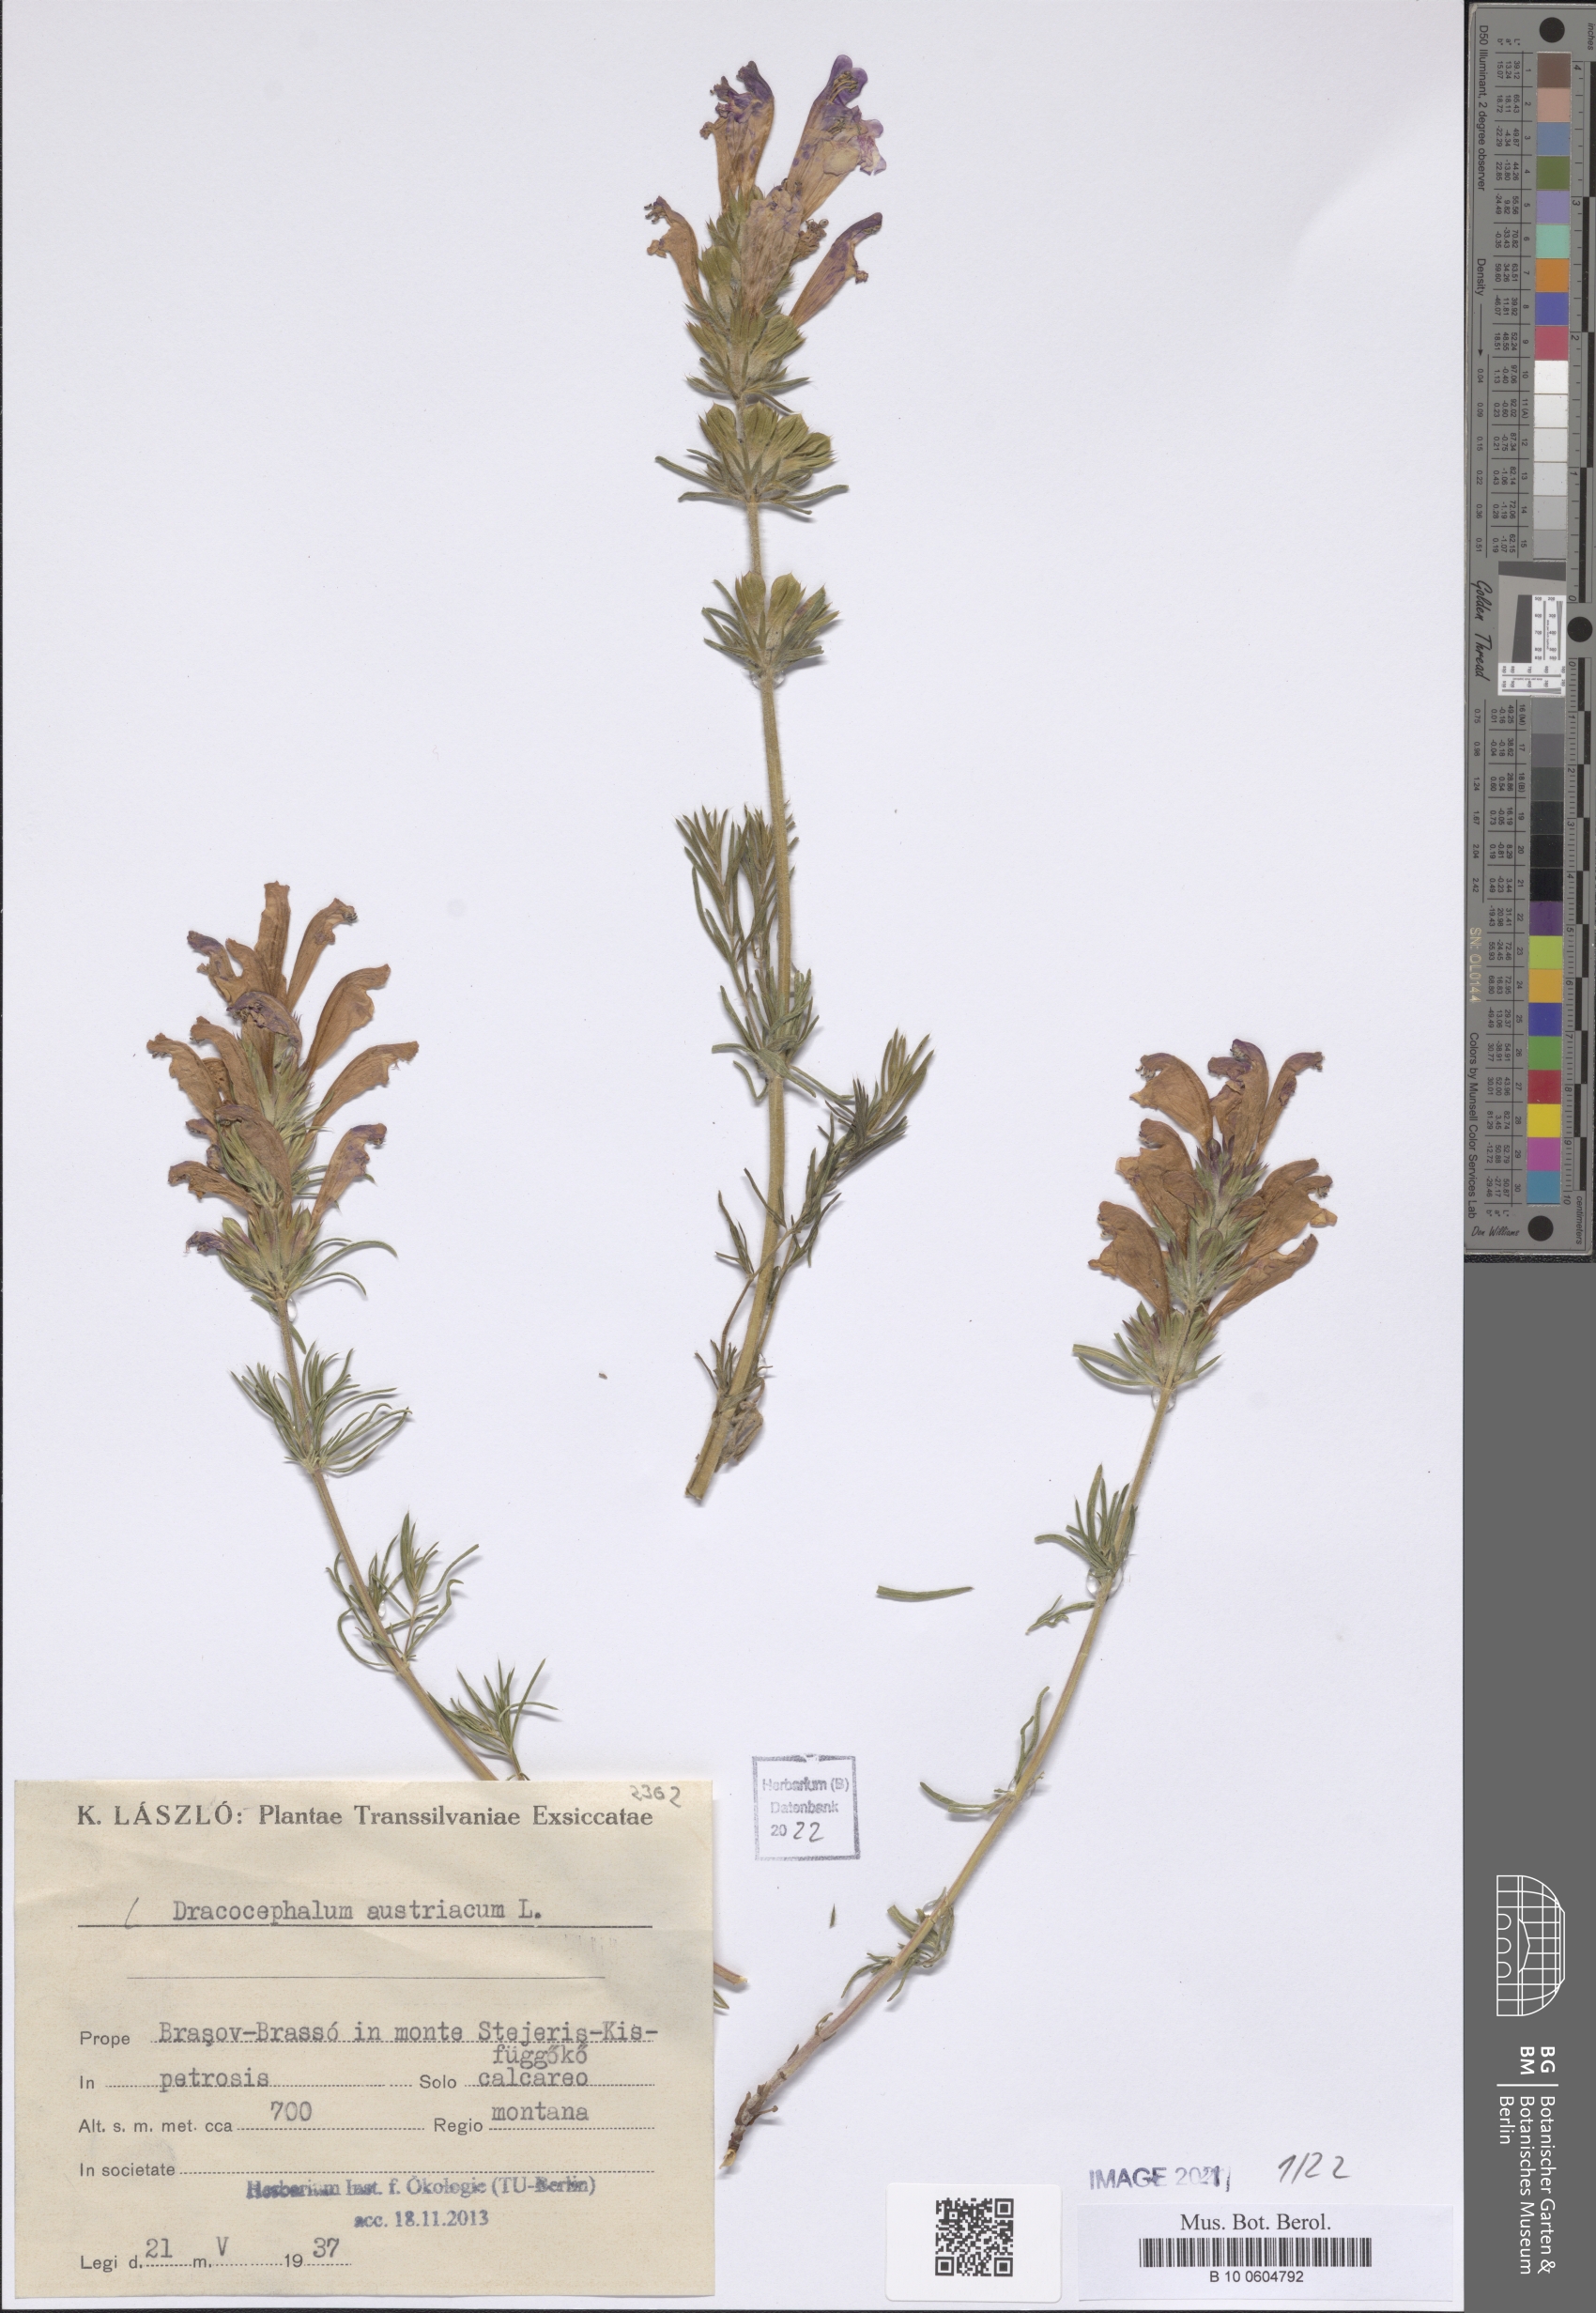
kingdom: Plantae
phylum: Tracheophyta
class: Magnoliopsida
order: Lamiales
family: Lamiaceae
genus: Dracocephalum
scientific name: Dracocephalum austriacum
